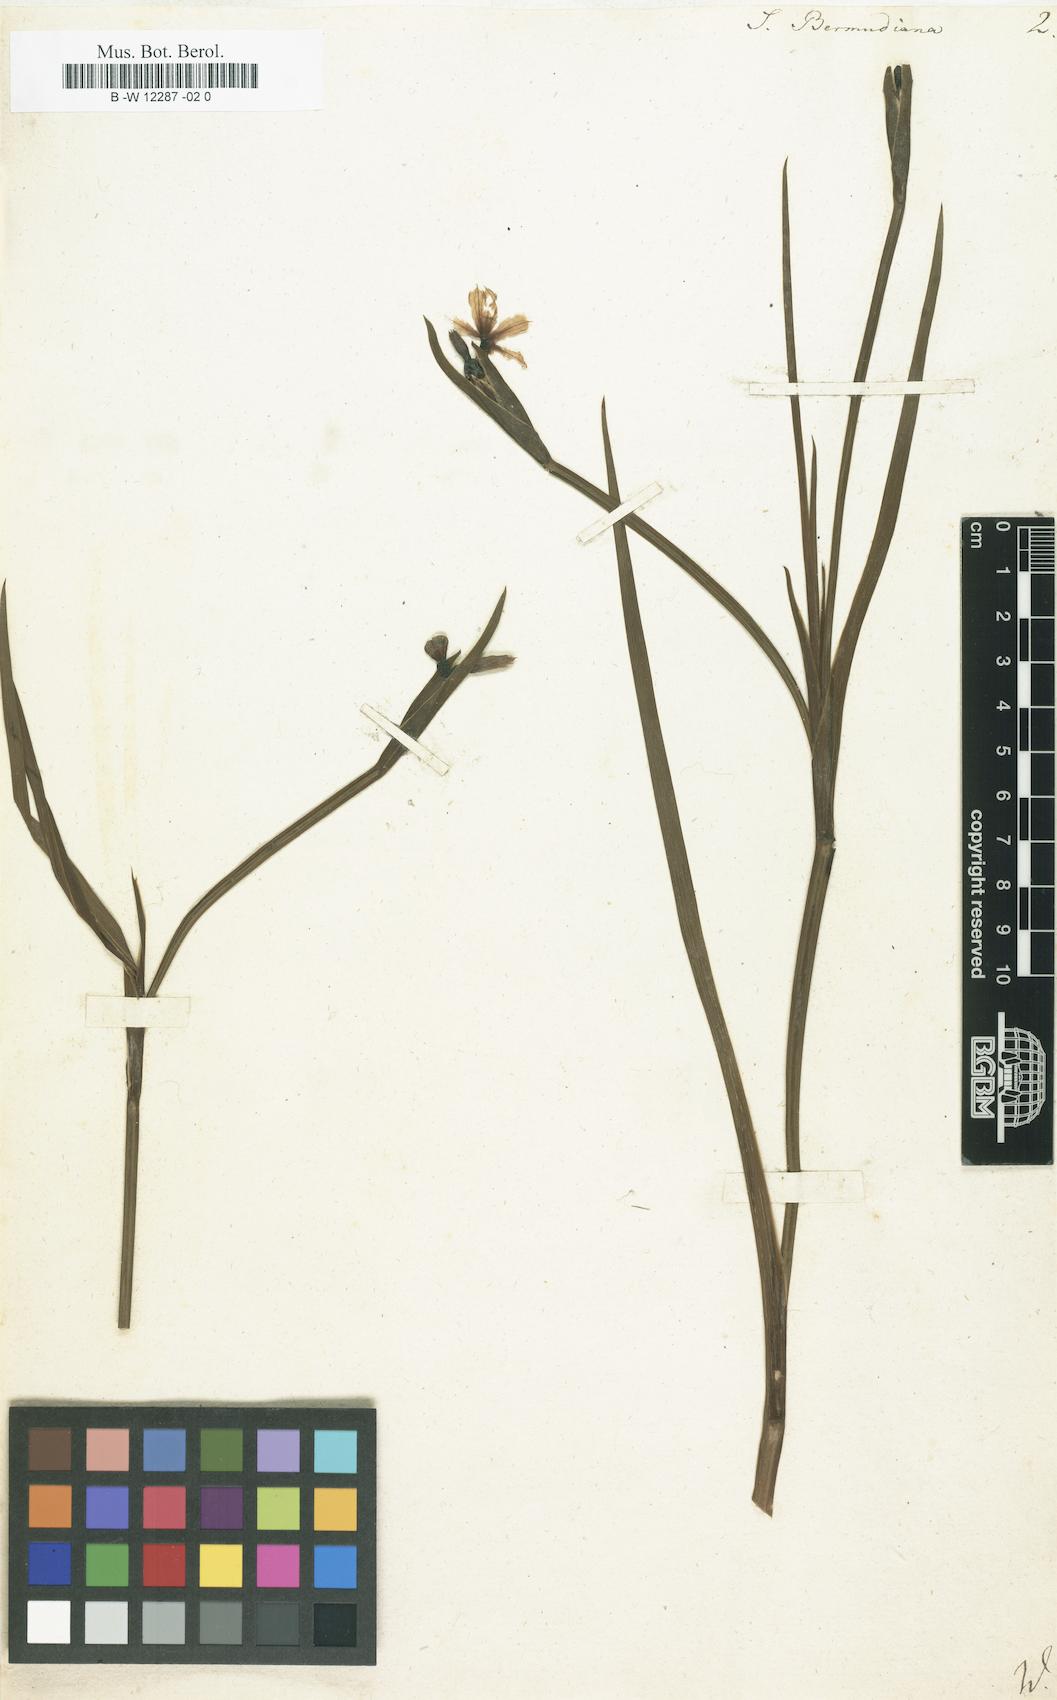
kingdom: Plantae
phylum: Tracheophyta
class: Liliopsida
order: Asparagales
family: Iridaceae
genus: Sisyrinchium
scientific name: Sisyrinchium bermudiana
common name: Blue-eyed-grass
